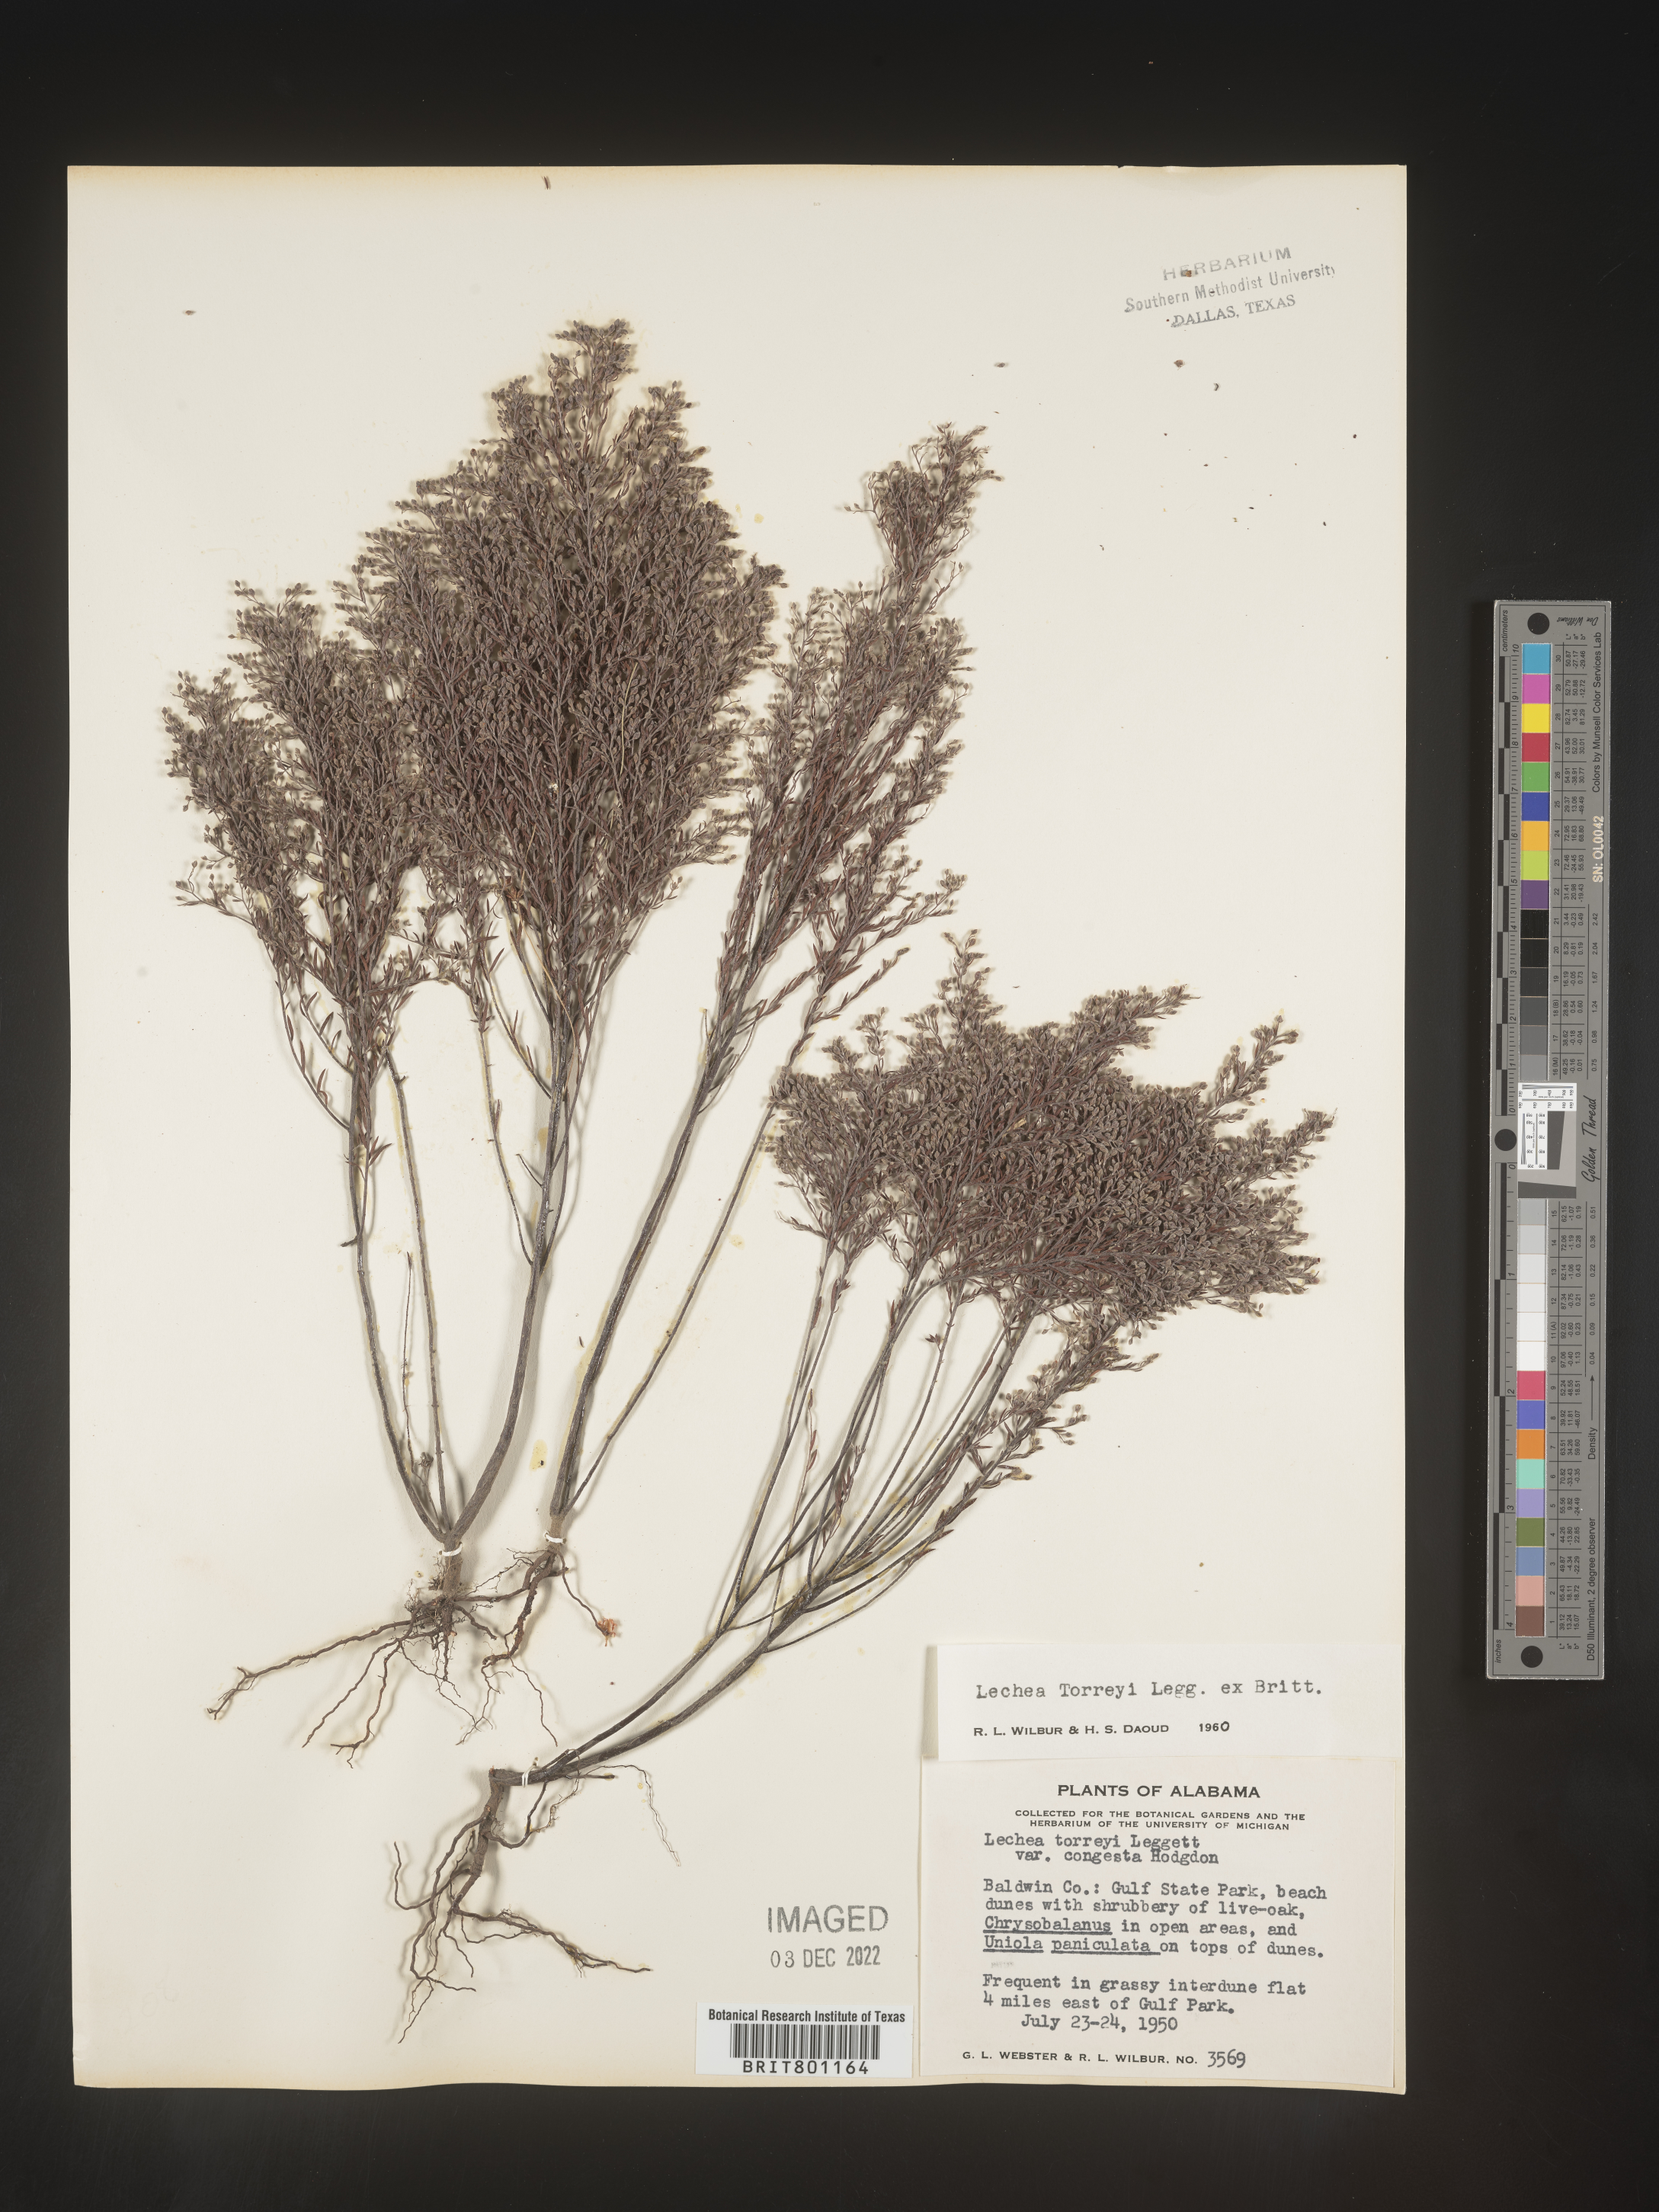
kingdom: Plantae
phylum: Tracheophyta
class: Magnoliopsida
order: Malvales
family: Cistaceae
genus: Lechea
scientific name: Lechea torreyi
